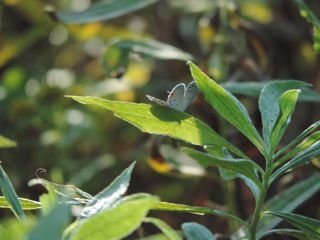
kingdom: Animalia
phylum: Arthropoda
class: Insecta
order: Lepidoptera
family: Lycaenidae
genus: Elkalyce
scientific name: Elkalyce comyntas
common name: Eastern Tailed-Blue
